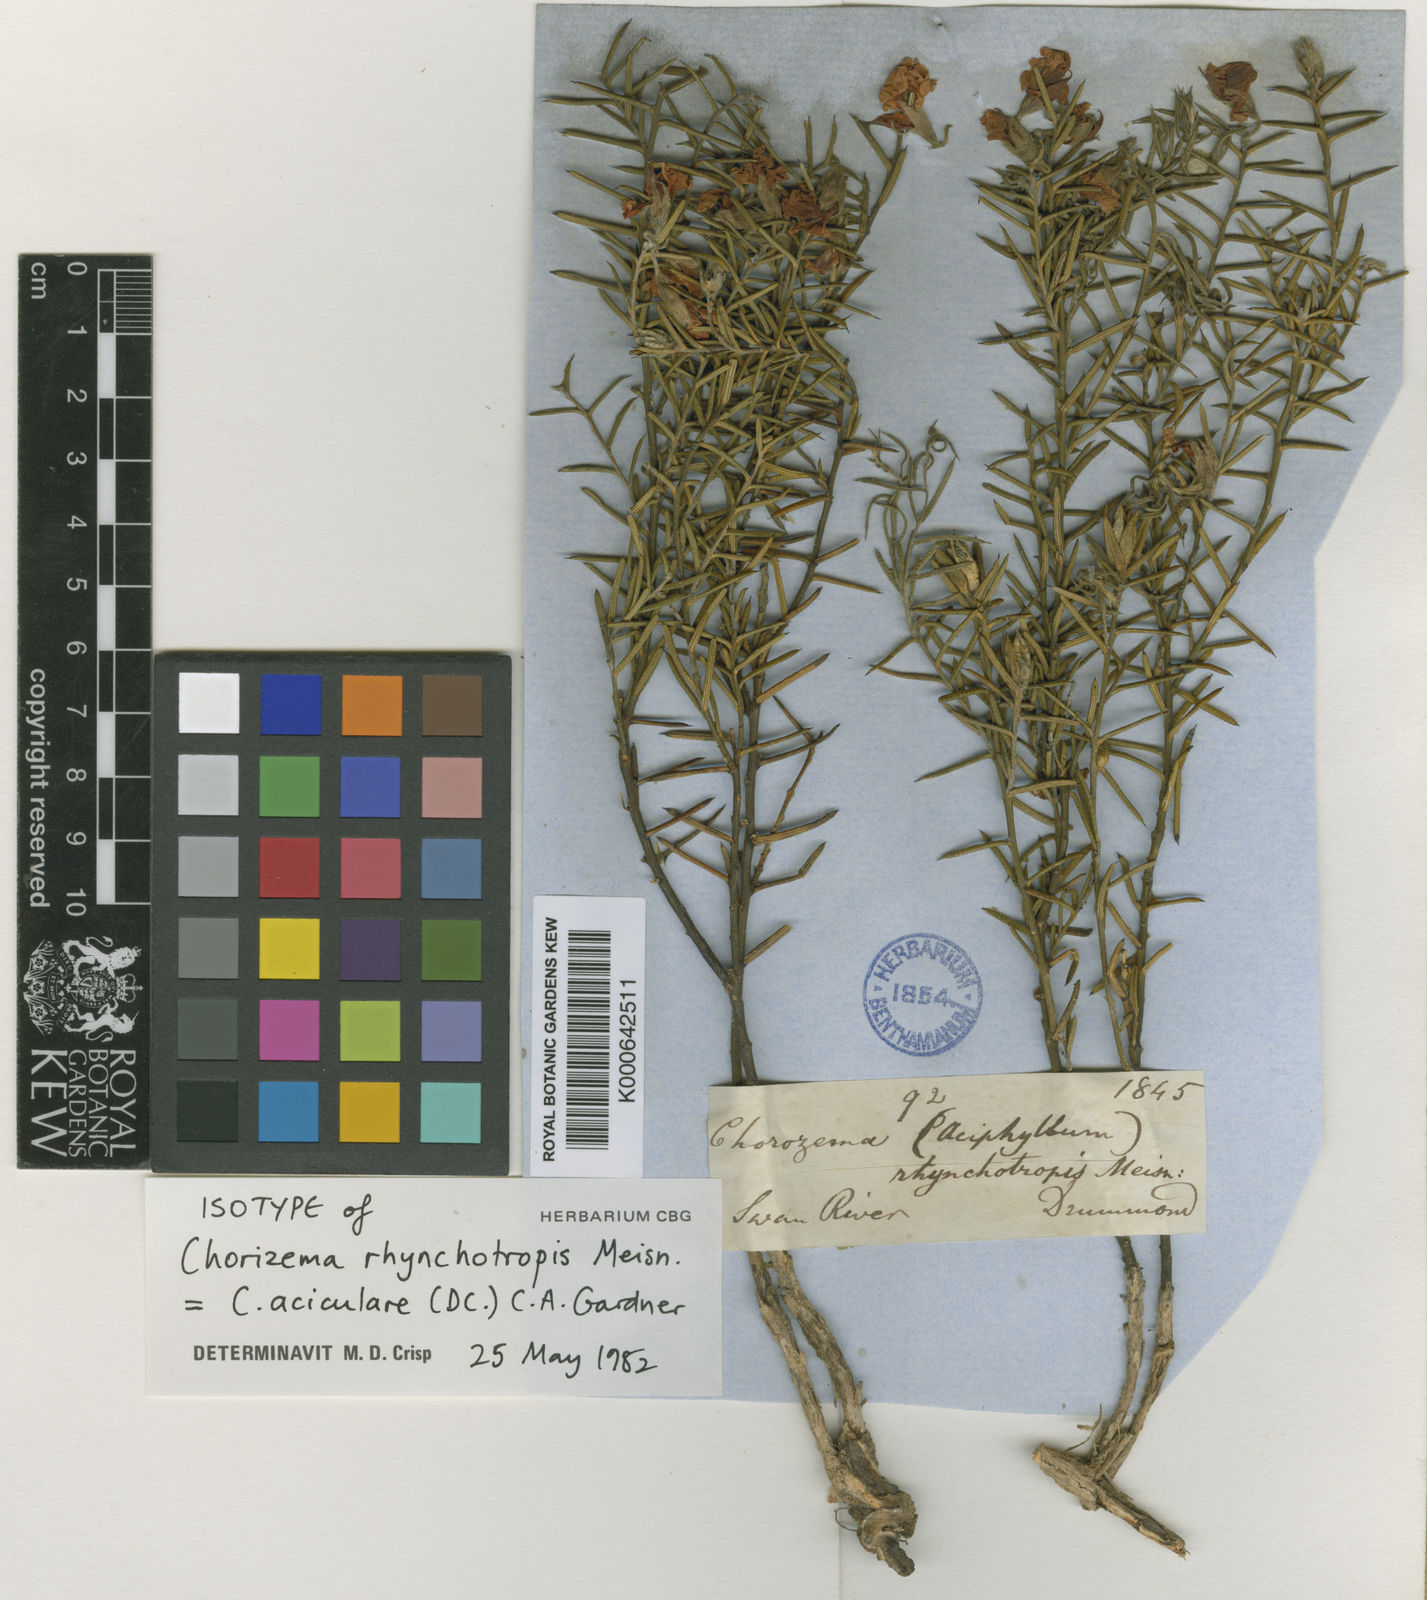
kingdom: Plantae
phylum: Tracheophyta
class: Magnoliopsida
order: Fabales
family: Fabaceae
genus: Chorizema
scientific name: Chorizema aciculare
